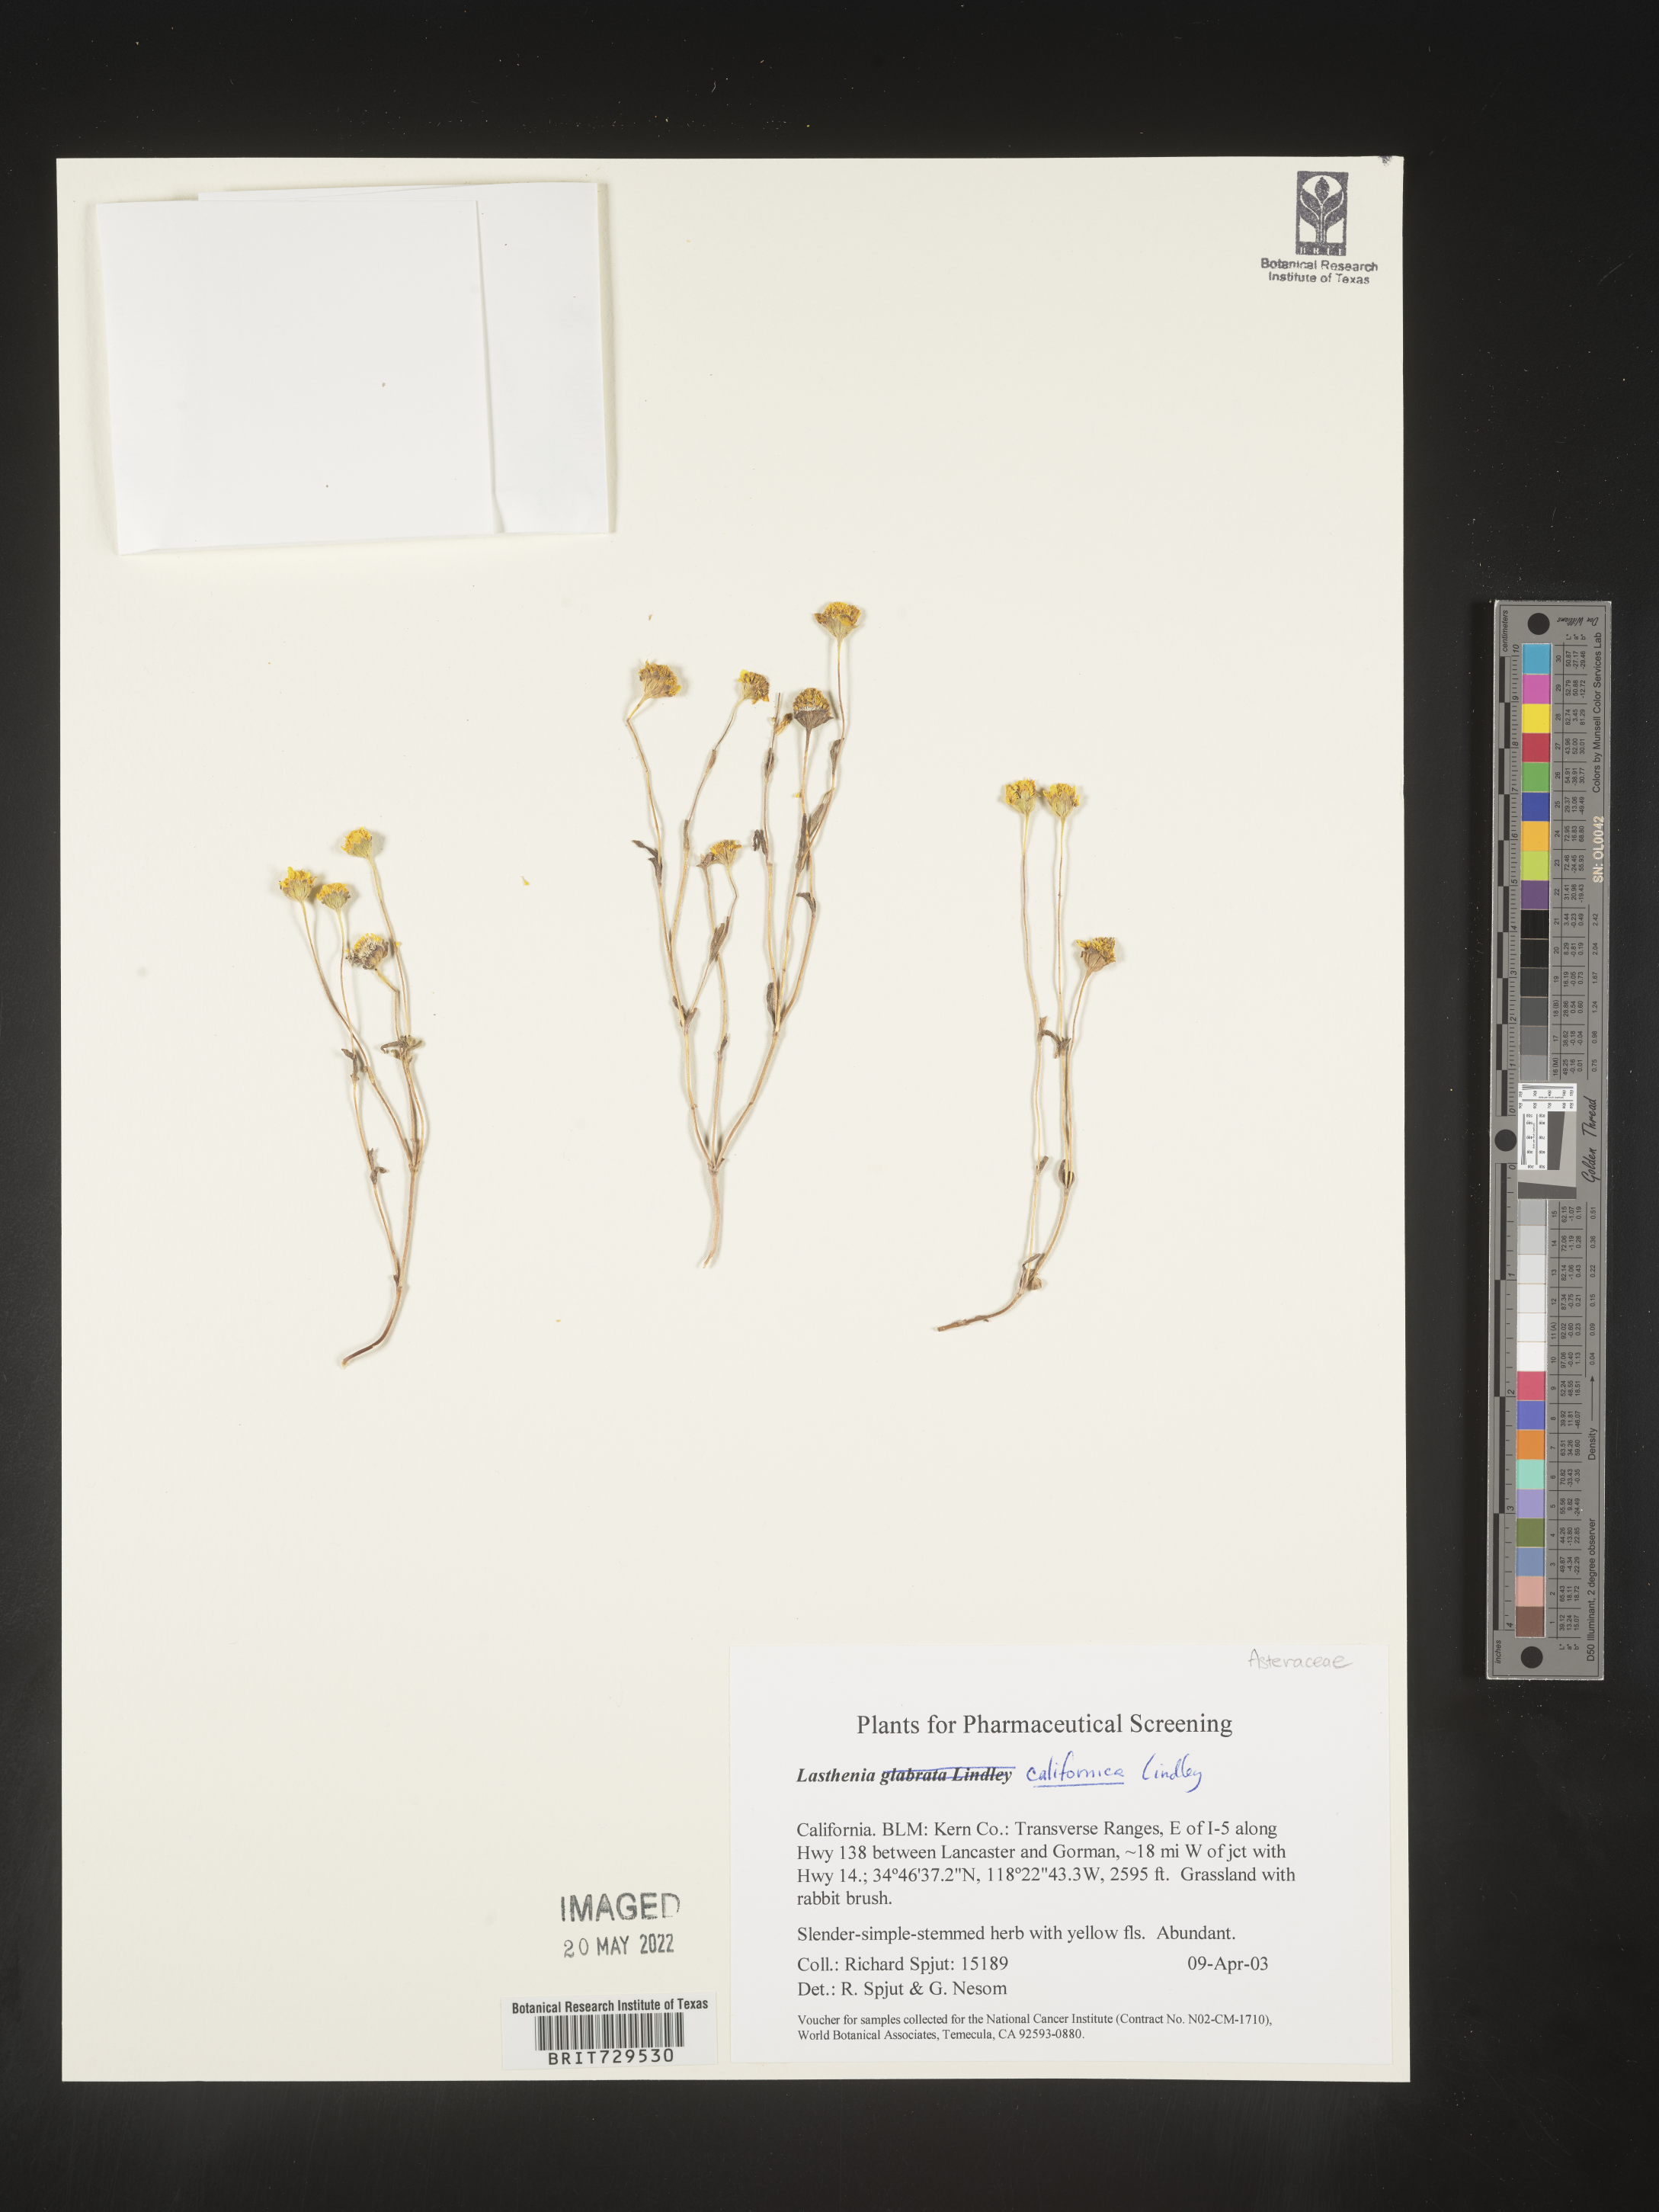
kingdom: Plantae
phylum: Tracheophyta
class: Magnoliopsida
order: Asterales
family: Asteraceae
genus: Lasthenia
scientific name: Lasthenia
